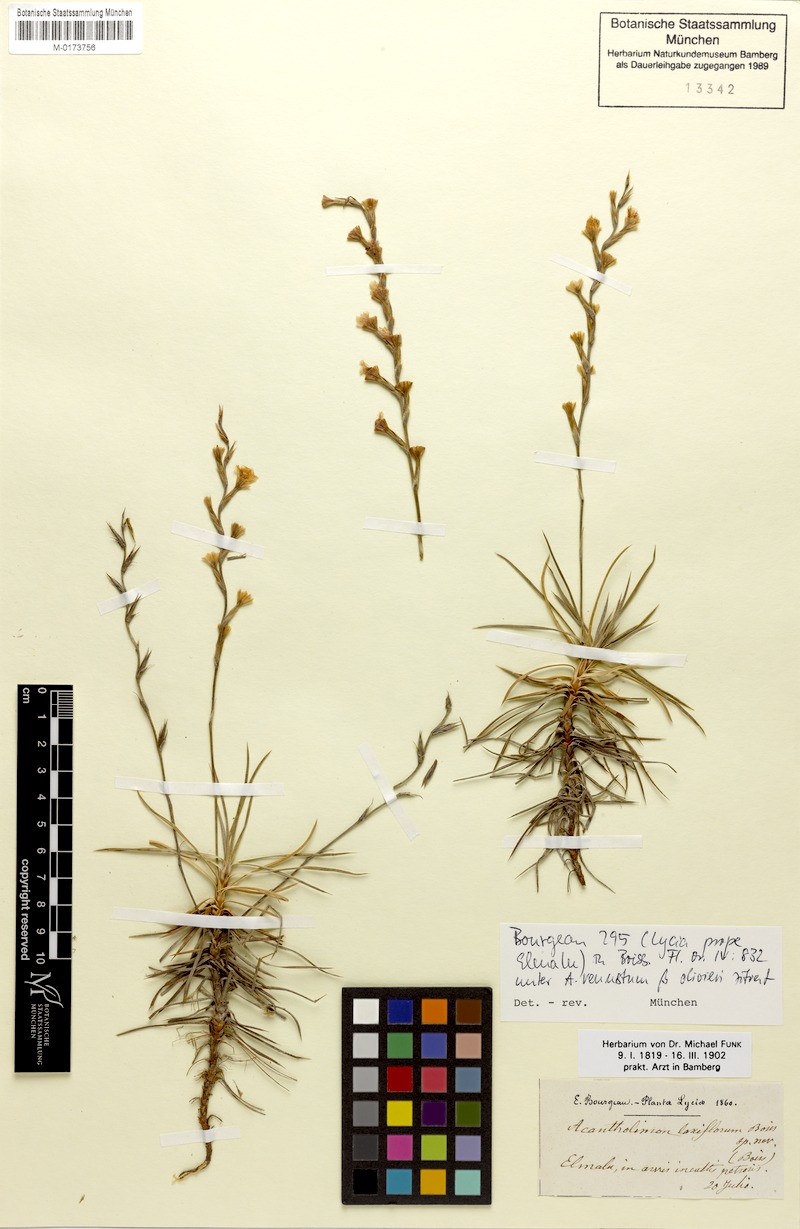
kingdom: Plantae
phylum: Tracheophyta
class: Magnoliopsida
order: Caryophyllales
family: Plumbaginaceae
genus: Acantholimon
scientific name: Acantholimon venustum
